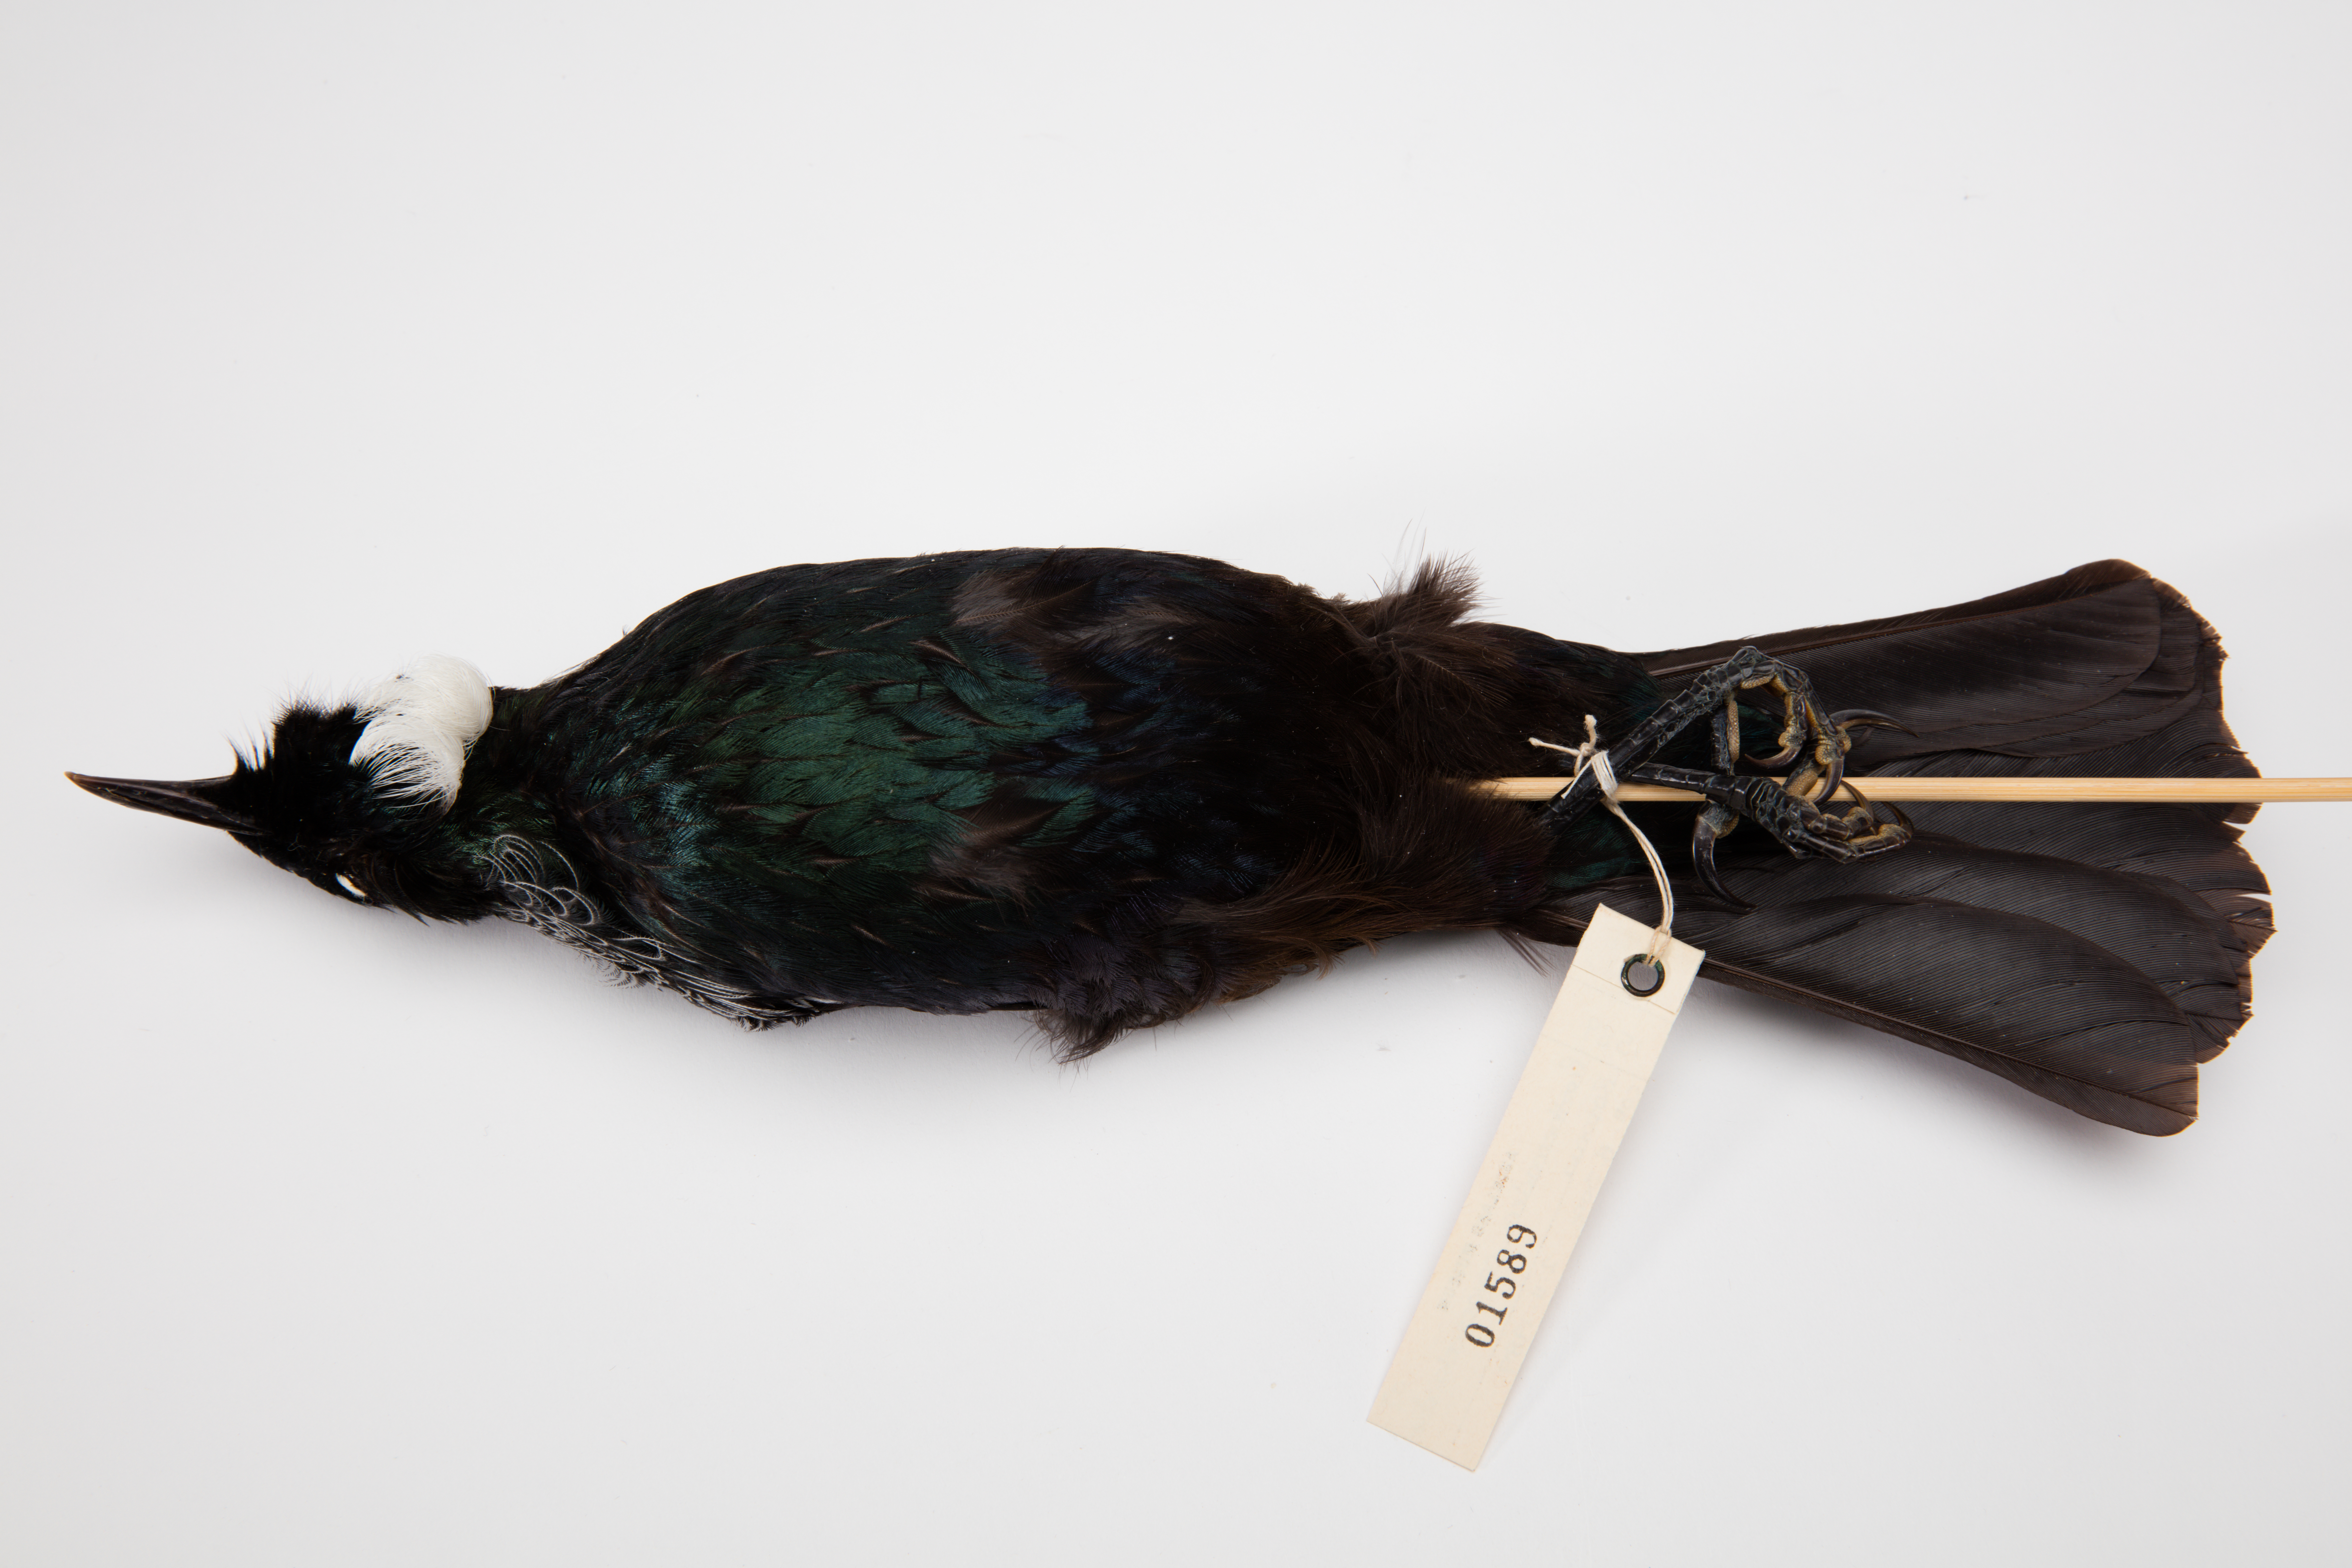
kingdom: Animalia
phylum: Chordata
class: Aves
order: Passeriformes
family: Meliphagidae
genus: Prosthemadera
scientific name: Prosthemadera novaeseelandiae
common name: Tui
